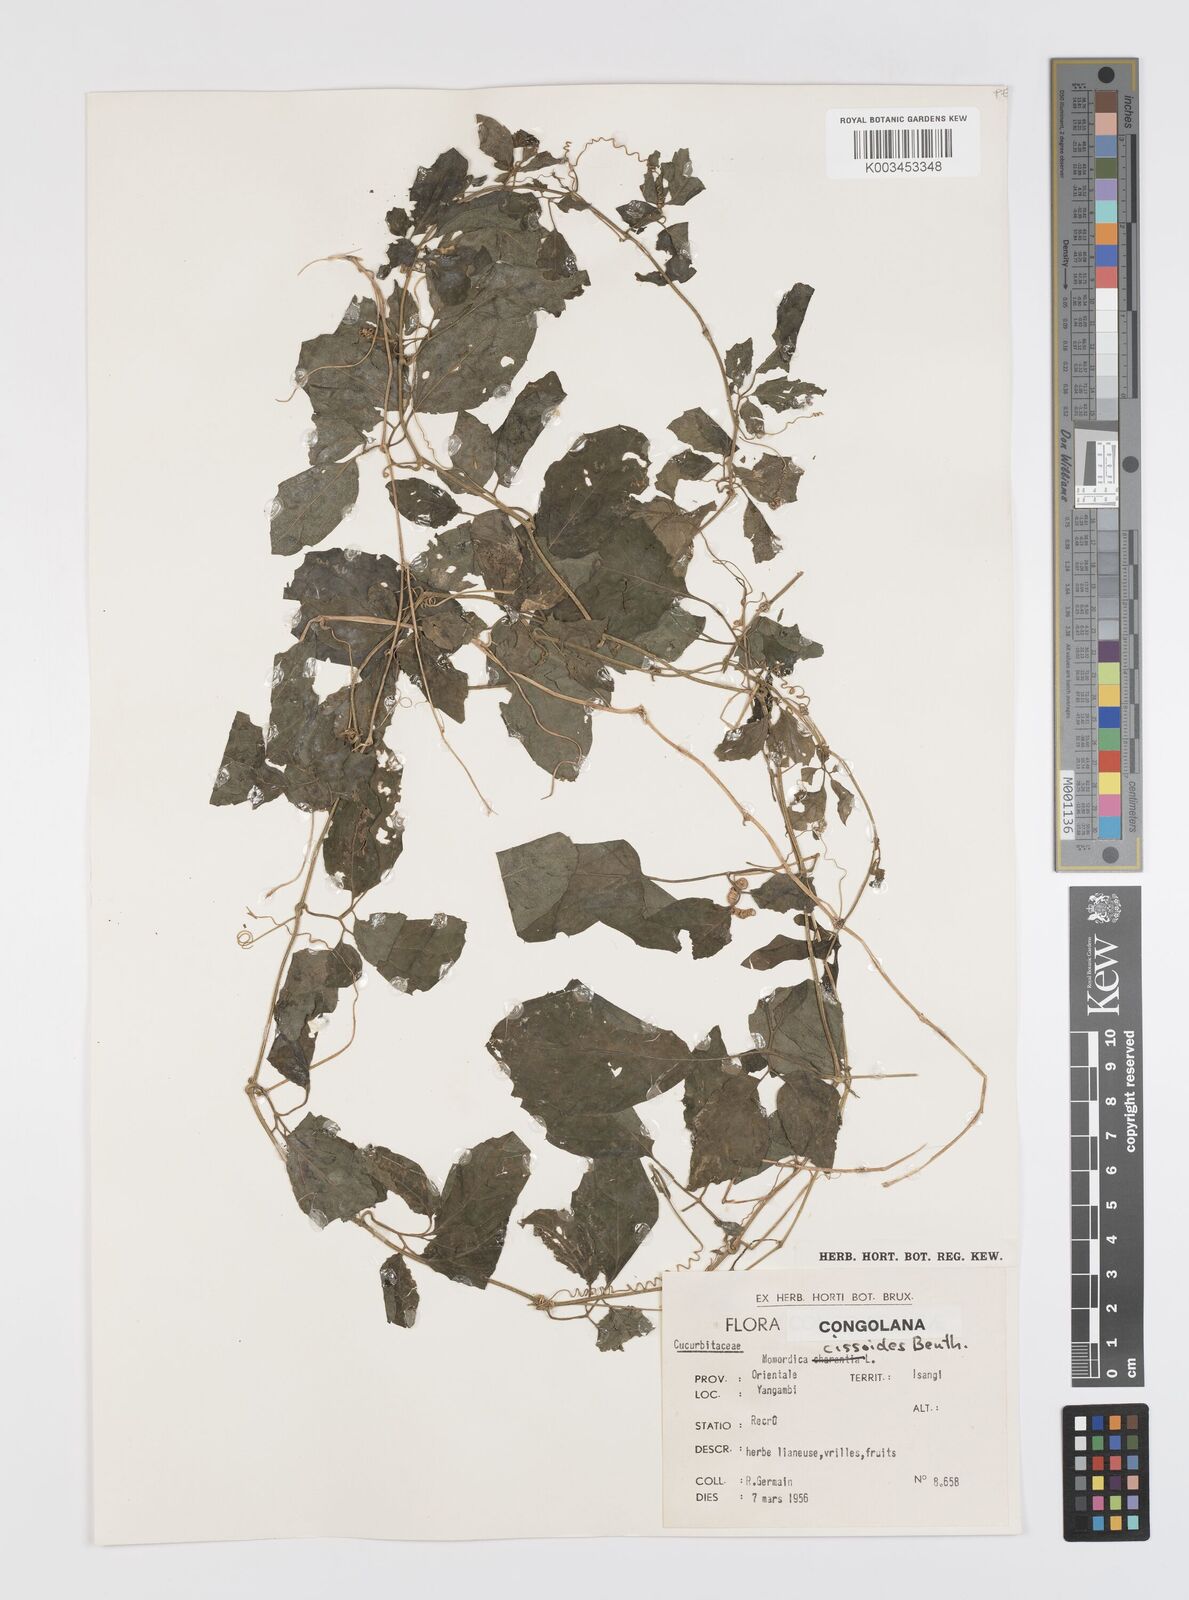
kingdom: Plantae
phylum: Tracheophyta
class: Magnoliopsida
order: Cucurbitales
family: Cucurbitaceae
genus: Momordica
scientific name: Momordica cissoides
